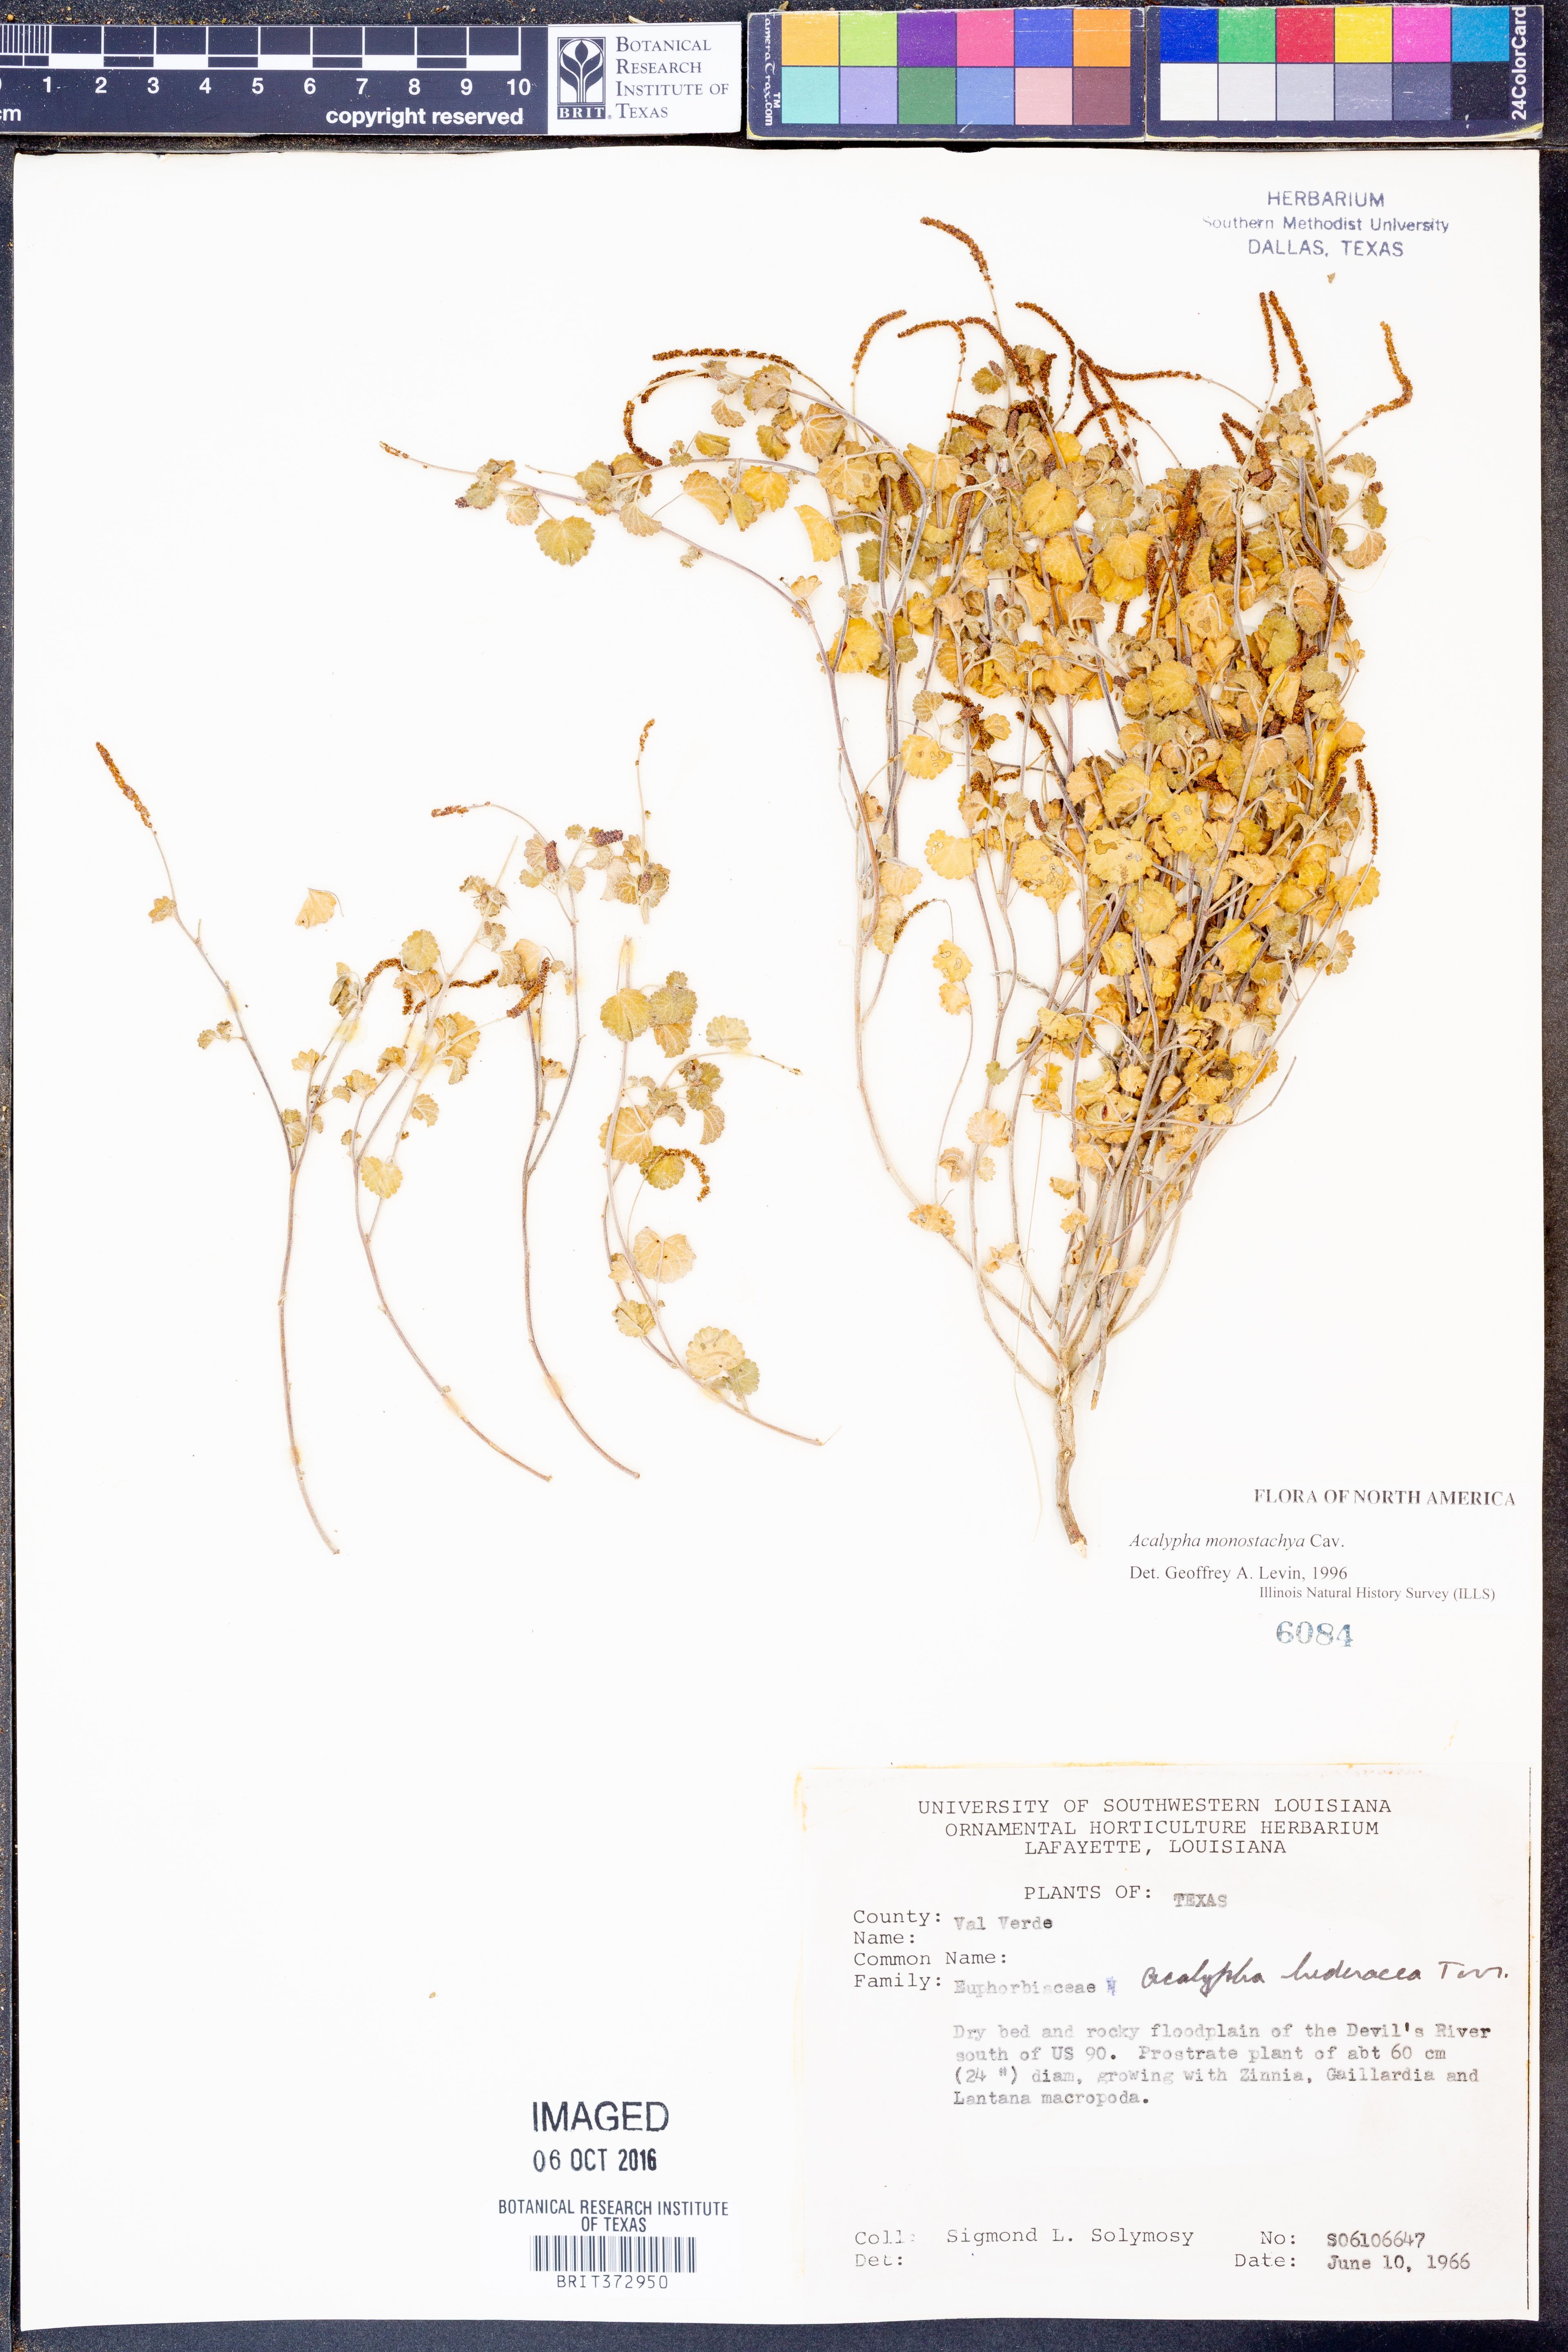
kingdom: Plantae
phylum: Tracheophyta
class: Magnoliopsida
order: Malpighiales
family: Euphorbiaceae
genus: Acalypha
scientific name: Acalypha monostachya
